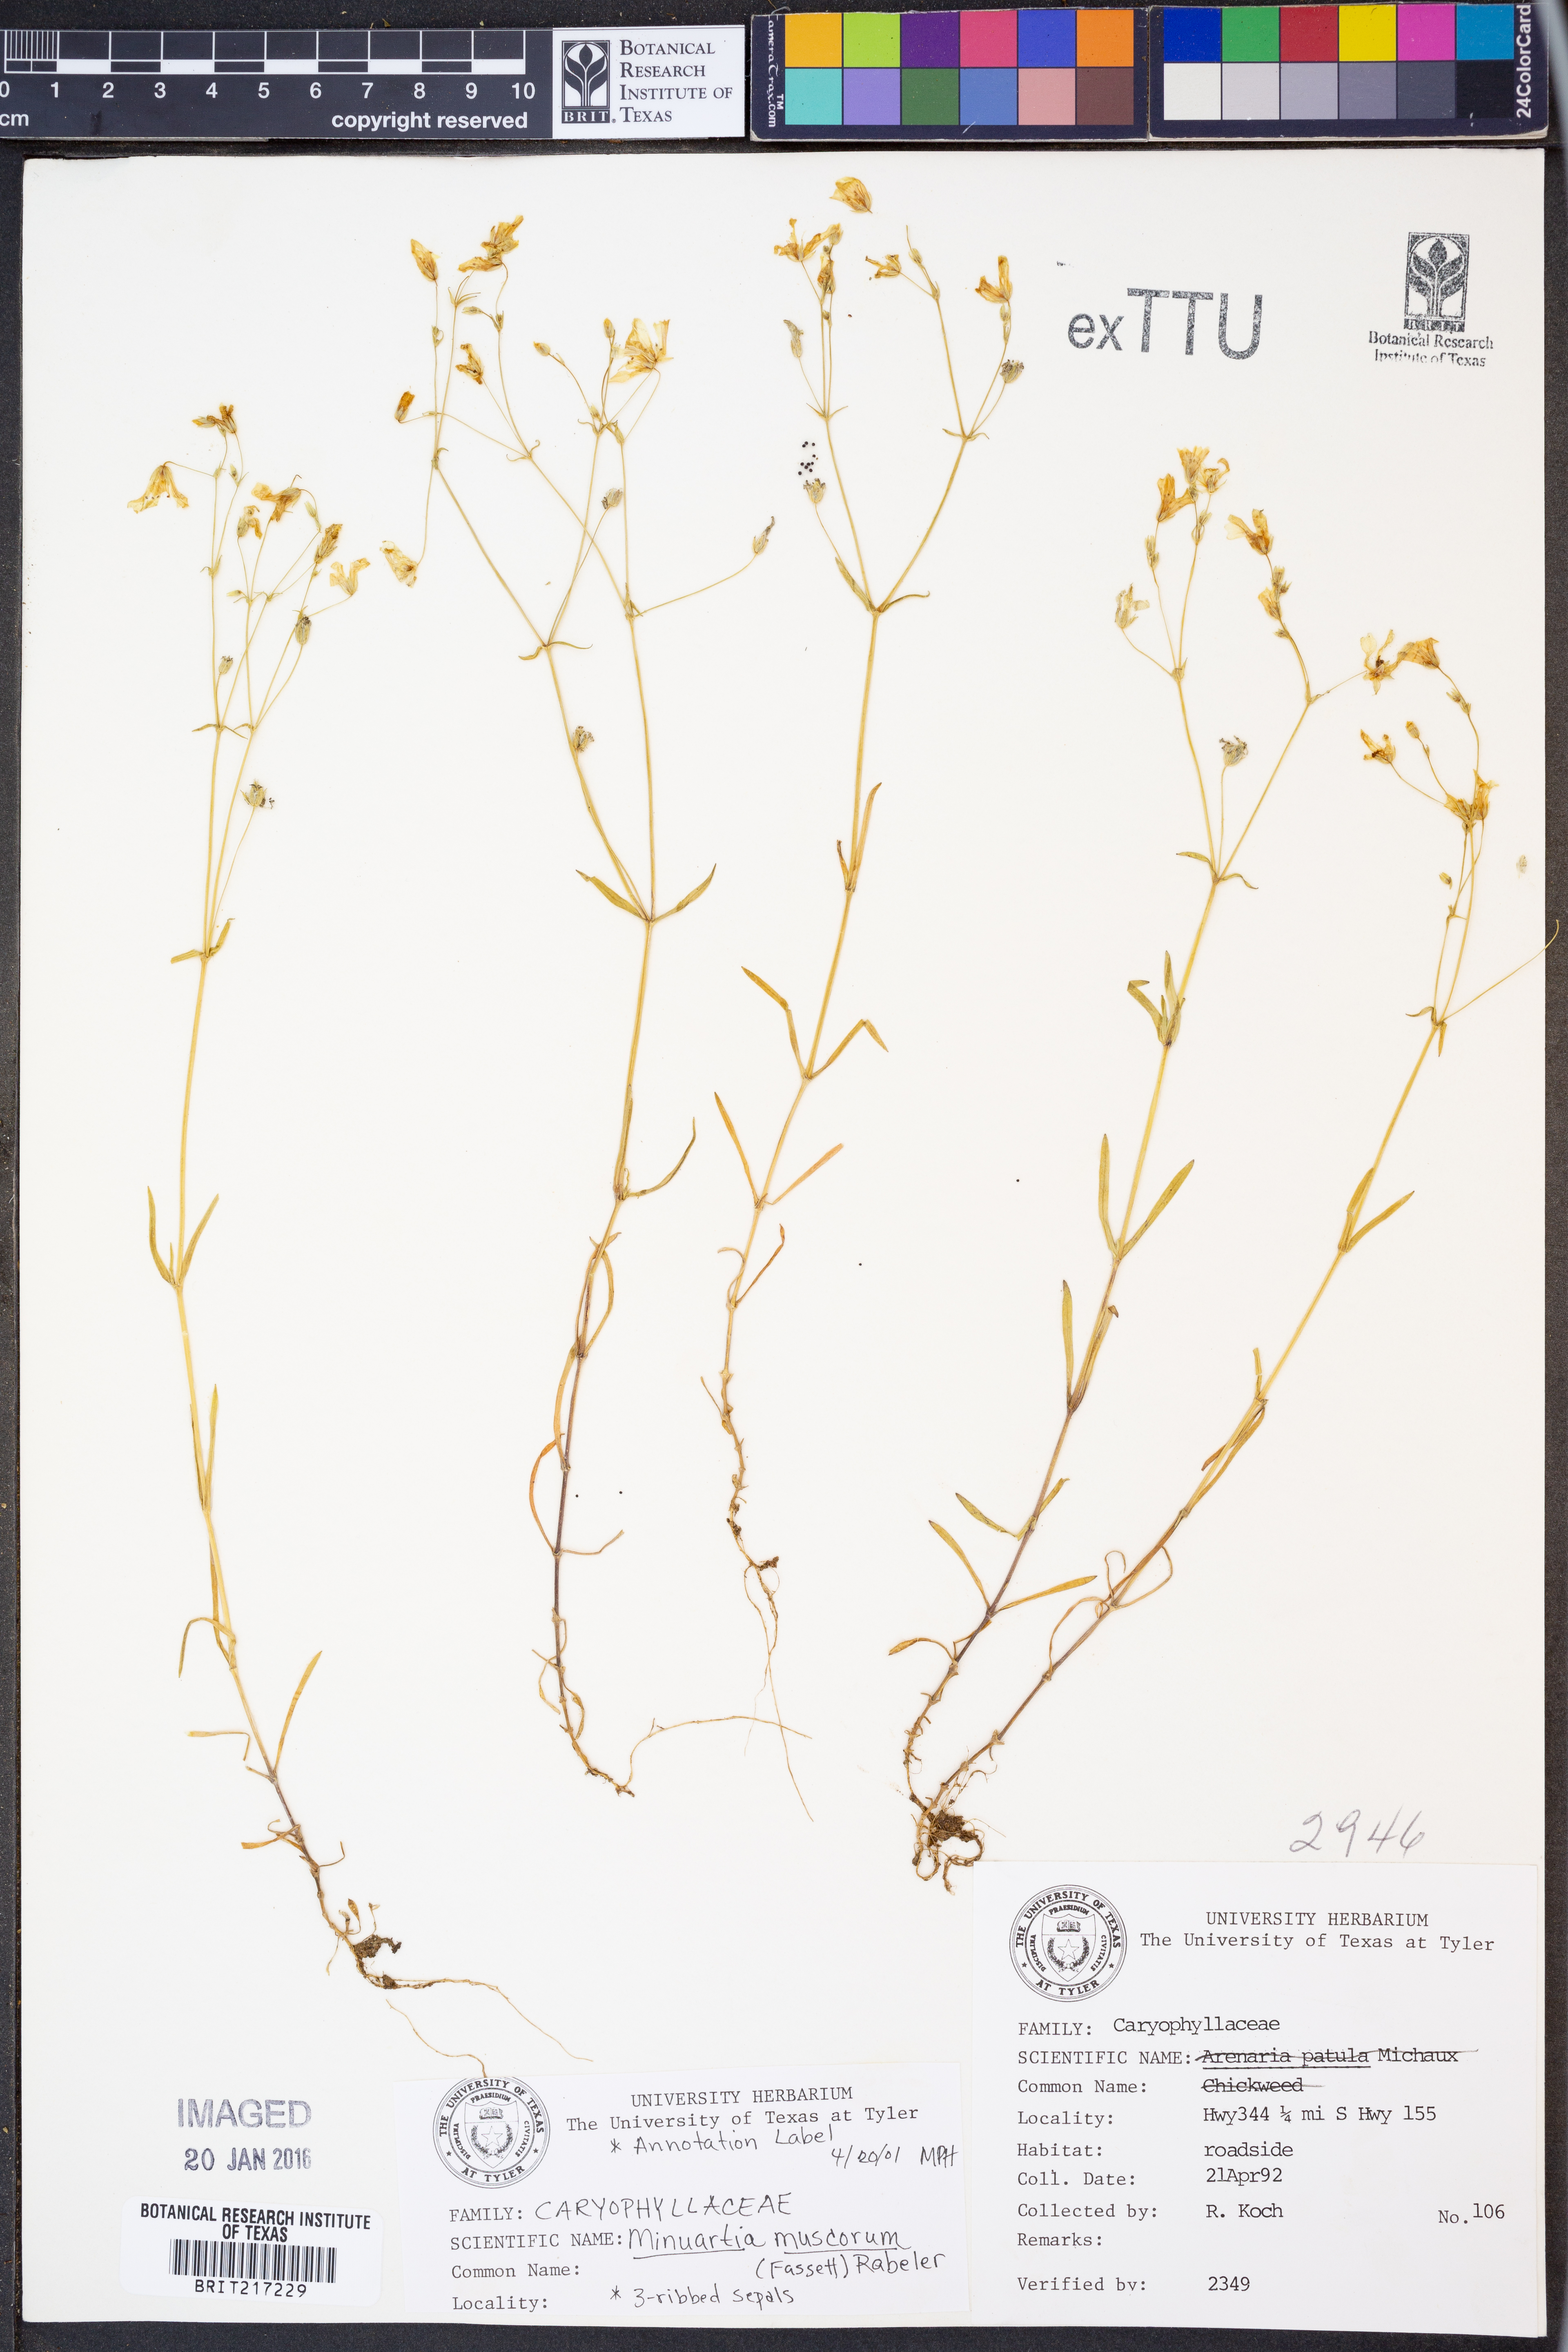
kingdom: Plantae
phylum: Tracheophyta
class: Magnoliopsida
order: Caryophyllales
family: Caryophyllaceae
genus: Mononeuria
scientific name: Mononeuria muscorum
